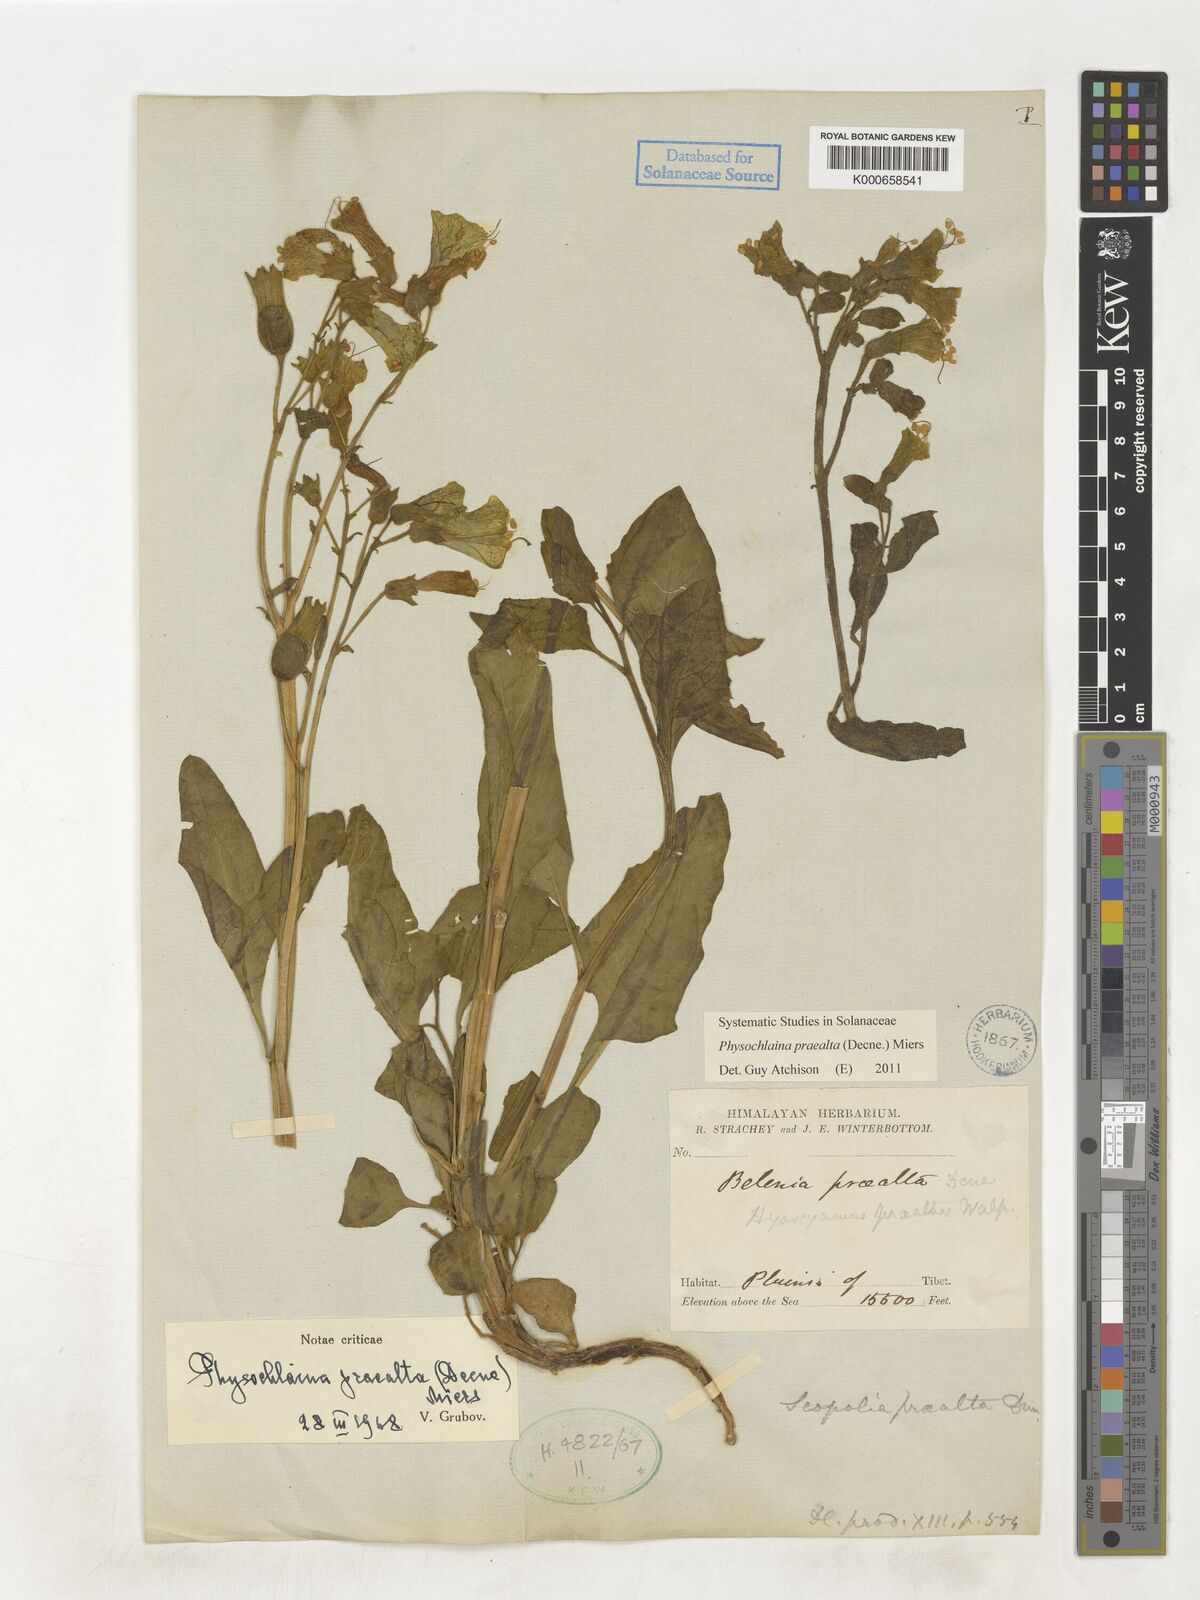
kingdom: Plantae
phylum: Tracheophyta
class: Magnoliopsida
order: Solanales
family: Solanaceae
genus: Physochlaina
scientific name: Physochlaina praealta
